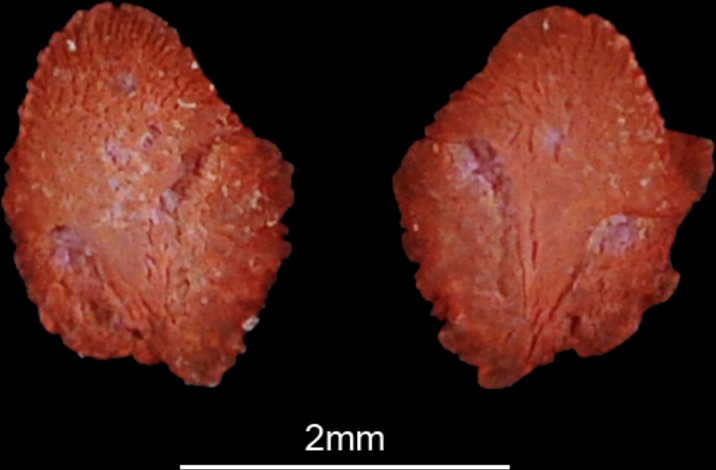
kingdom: Animalia
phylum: Chordata
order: Siluriformes
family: Mochokidae
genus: Synodontis
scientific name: Synodontis serratus
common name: Shield-head catfish
